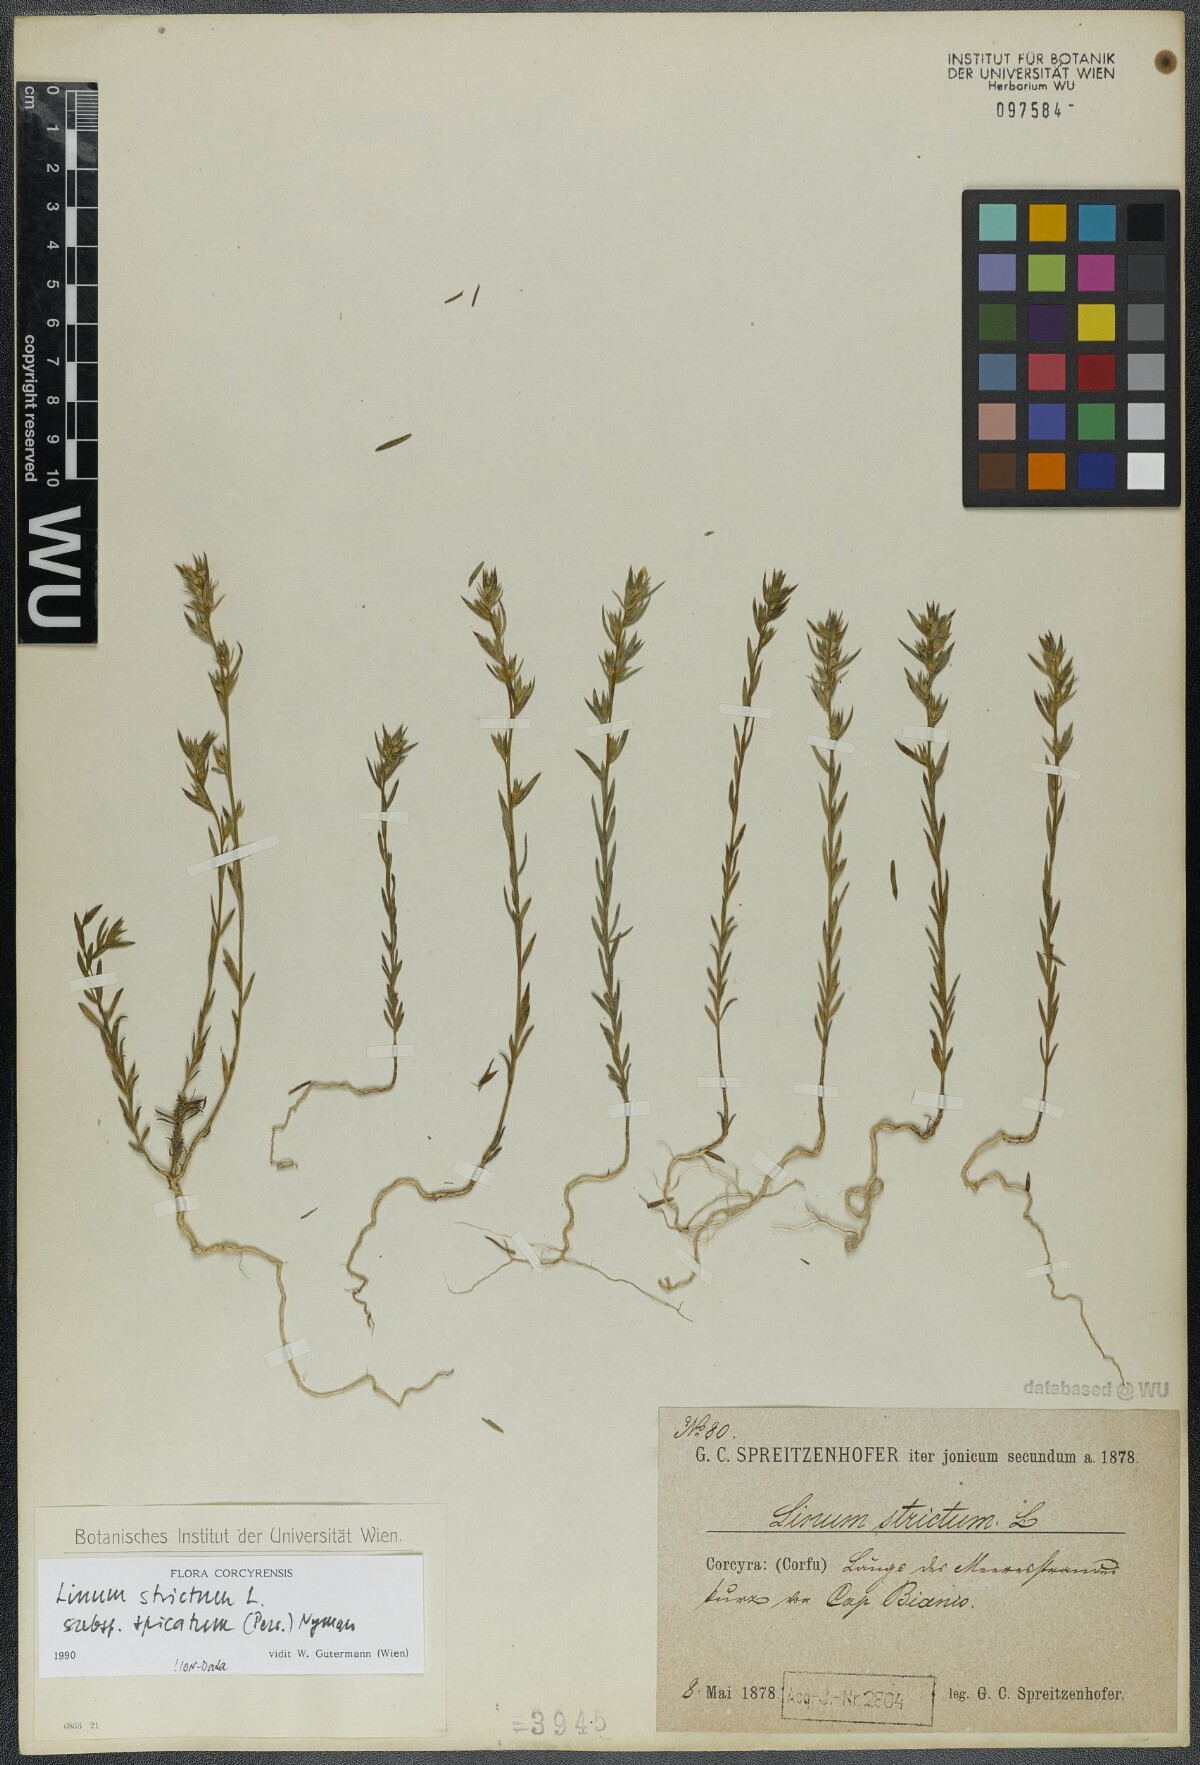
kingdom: Plantae
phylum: Tracheophyta
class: Magnoliopsida
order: Malpighiales
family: Linaceae
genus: Linum
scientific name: Linum strictum
